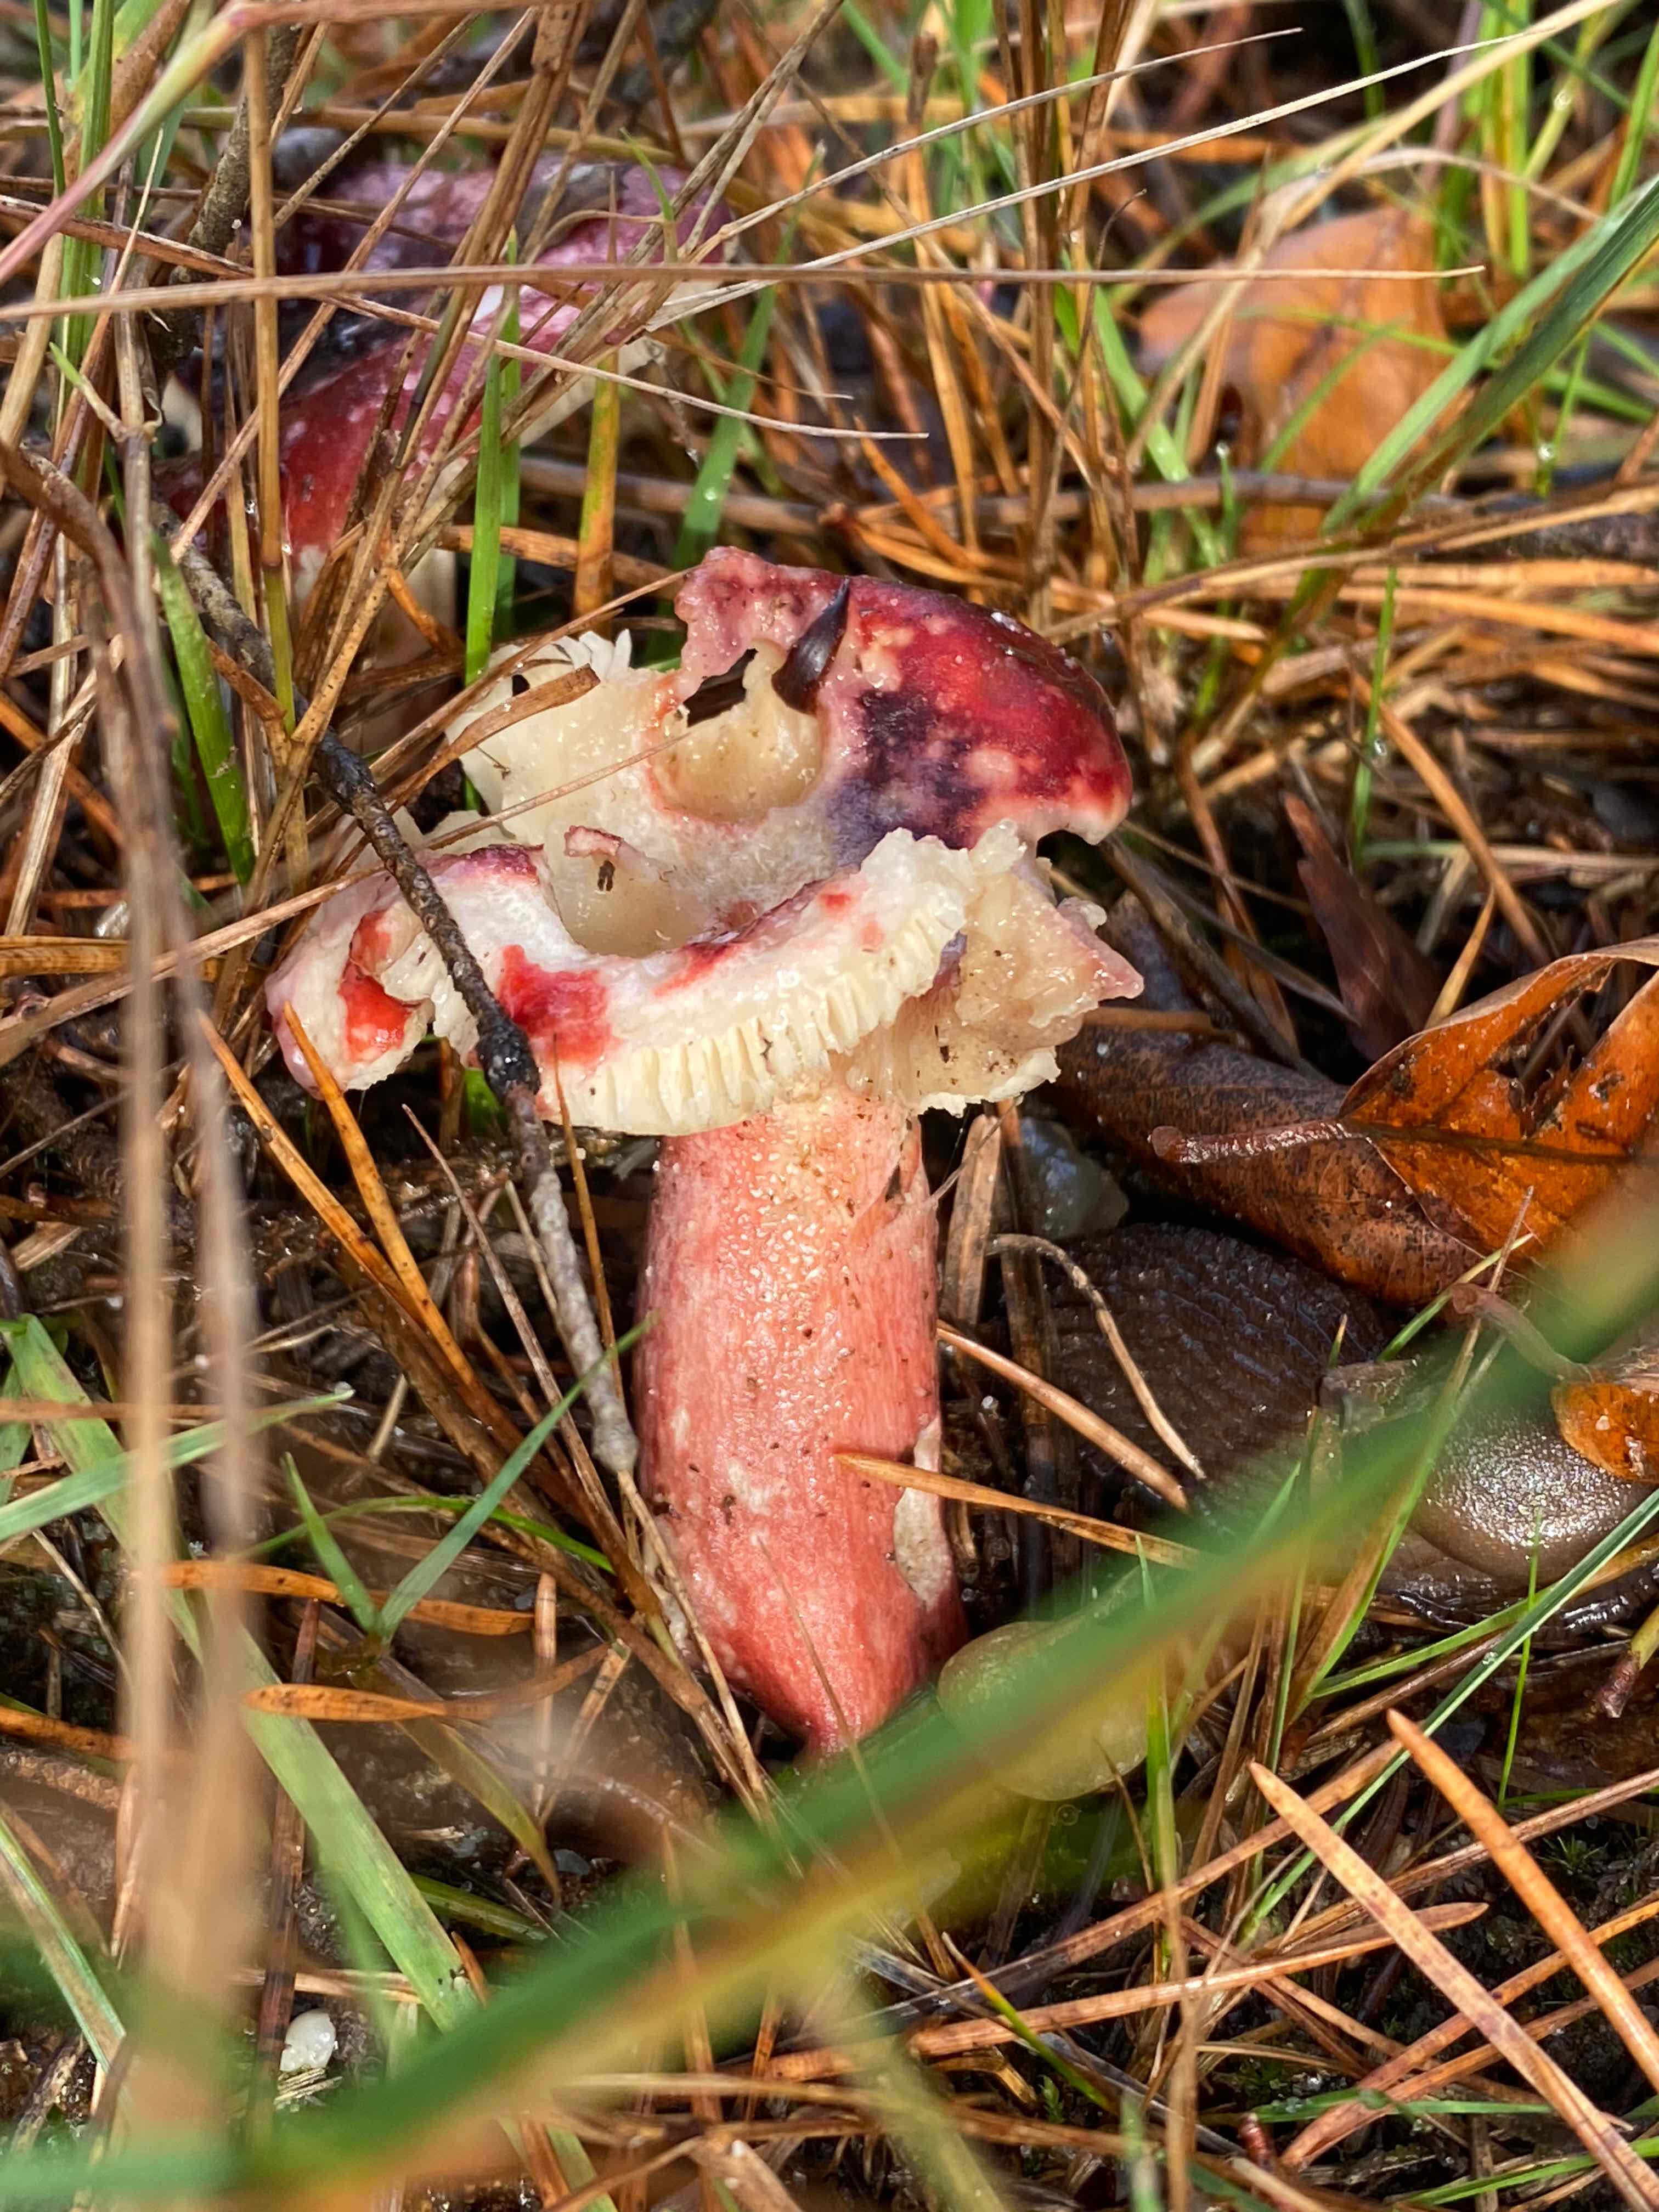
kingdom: Fungi
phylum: Basidiomycota
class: Agaricomycetes
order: Russulales
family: Russulaceae
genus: Russula
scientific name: Russula
